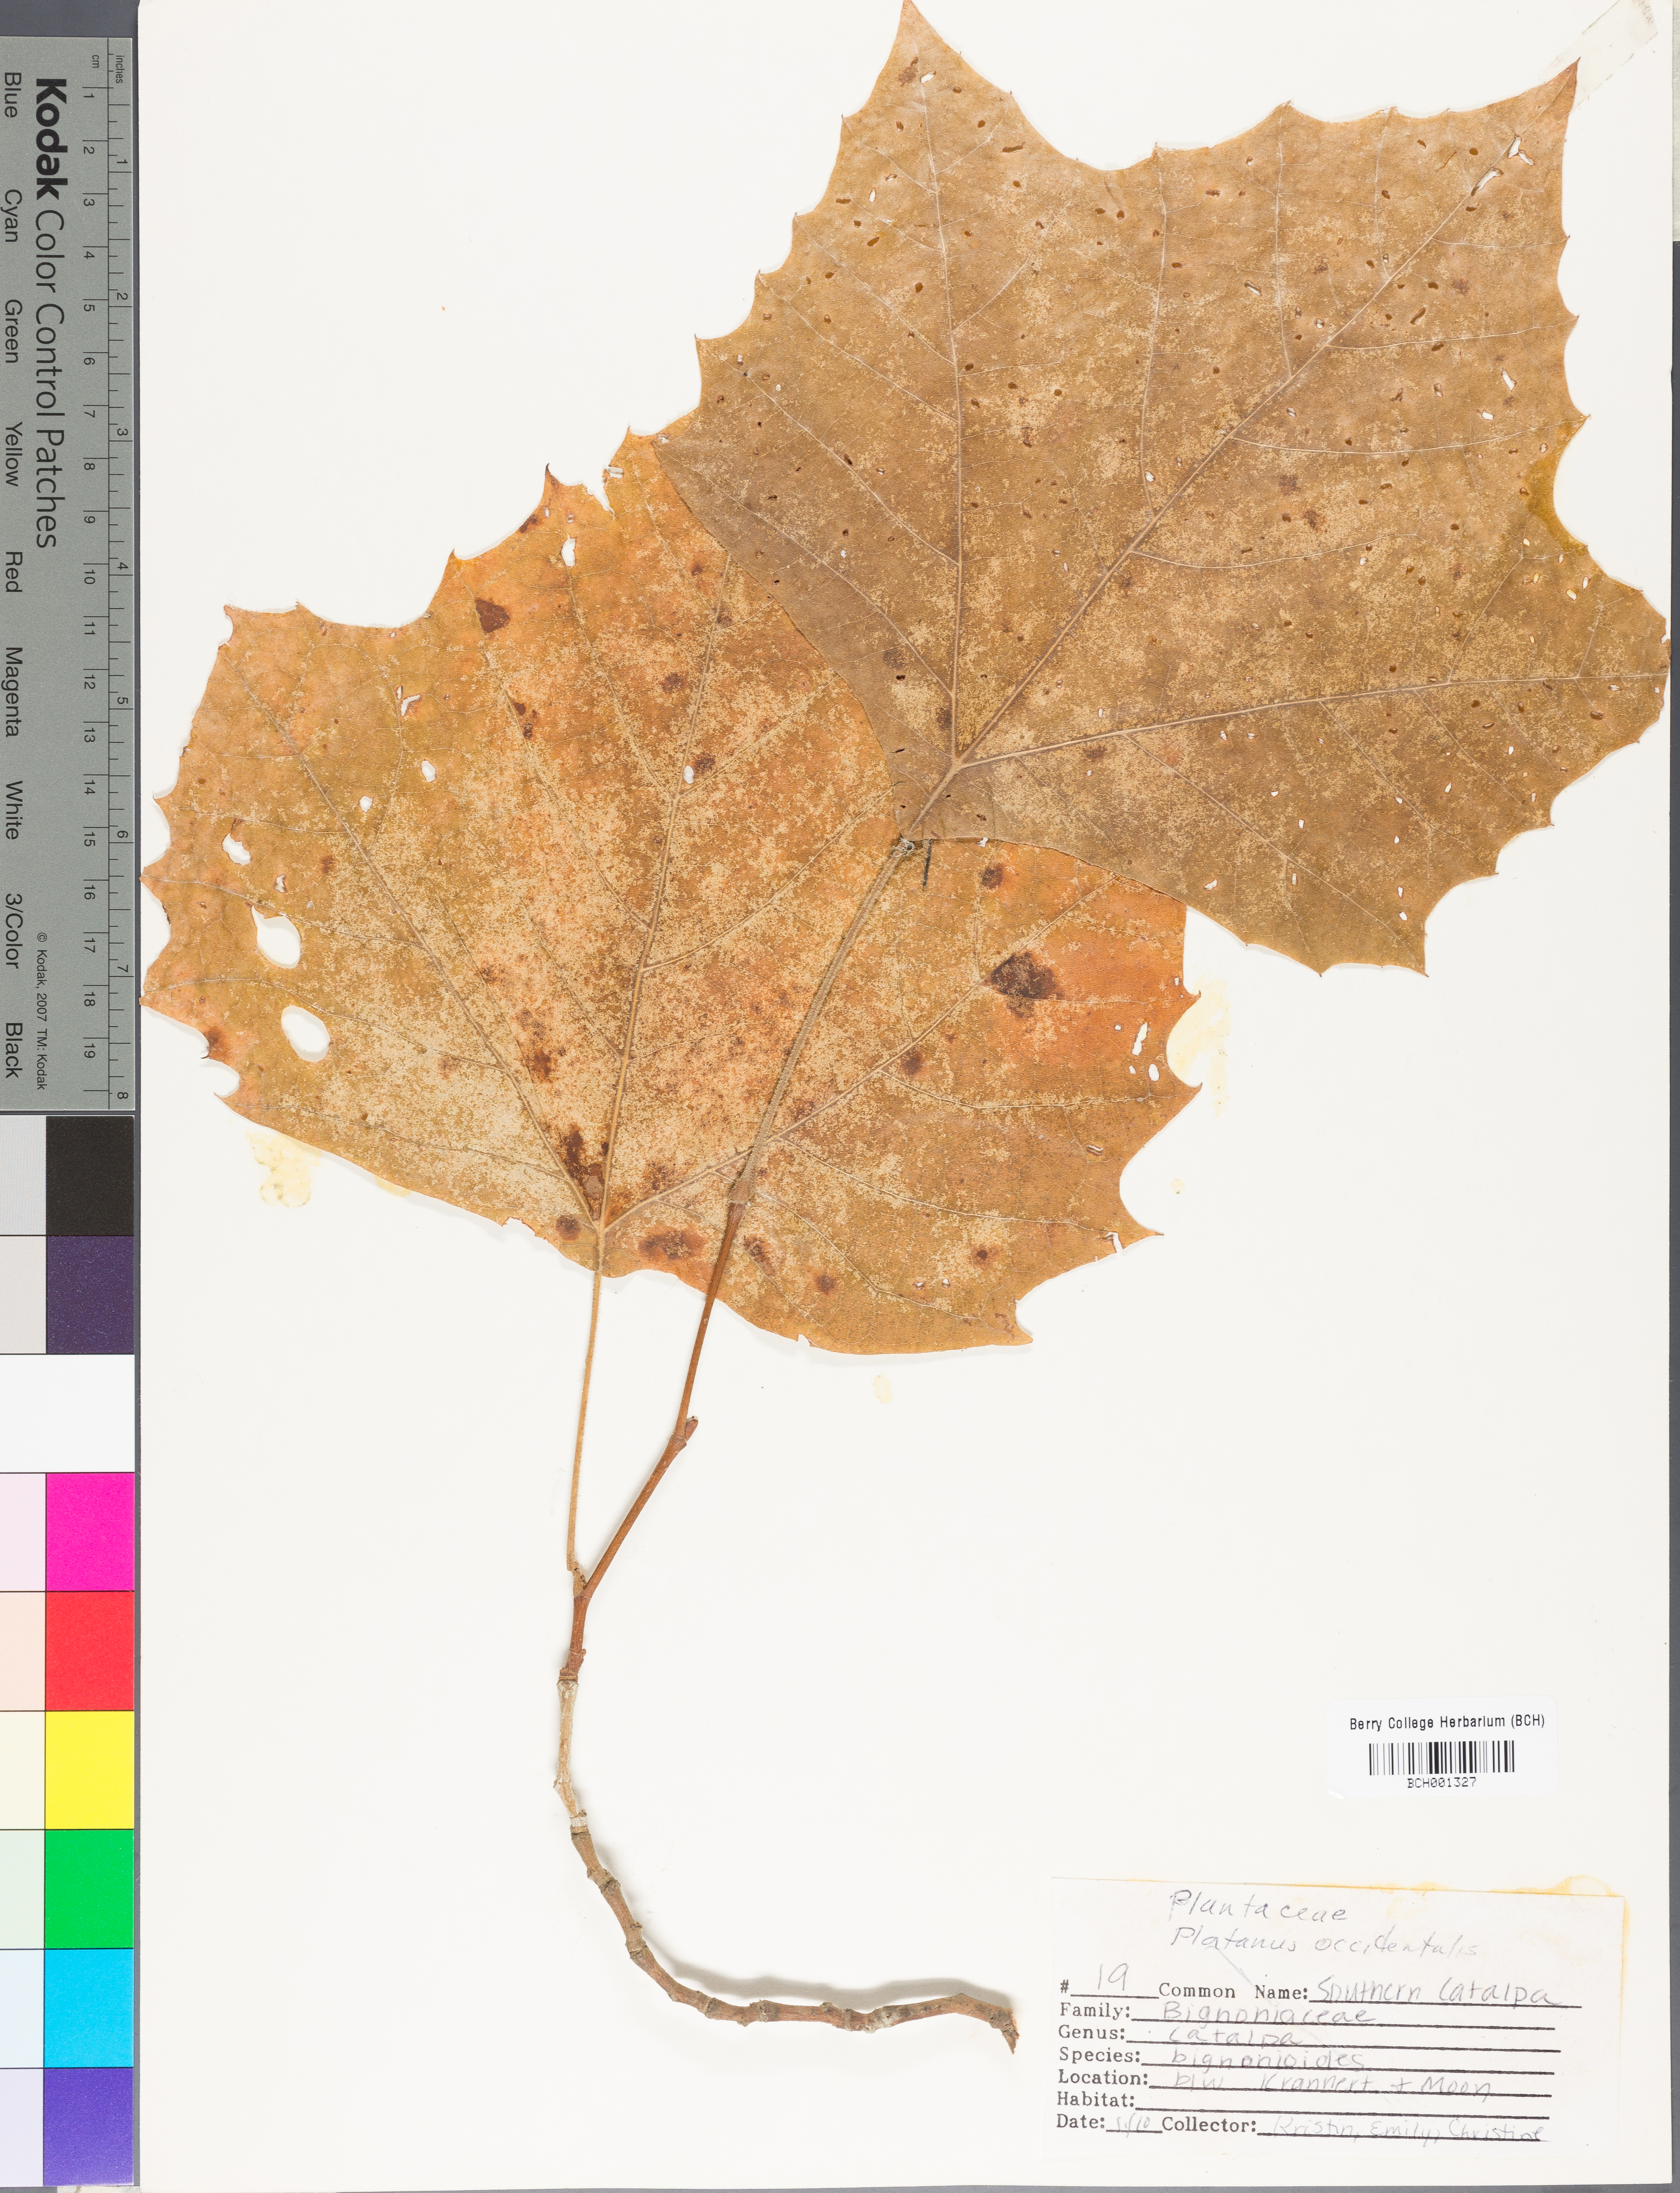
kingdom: Plantae
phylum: Tracheophyta
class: Magnoliopsida
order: Proteales
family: Platanaceae
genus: Platanus
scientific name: Platanus occidentalis
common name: American sycamore
